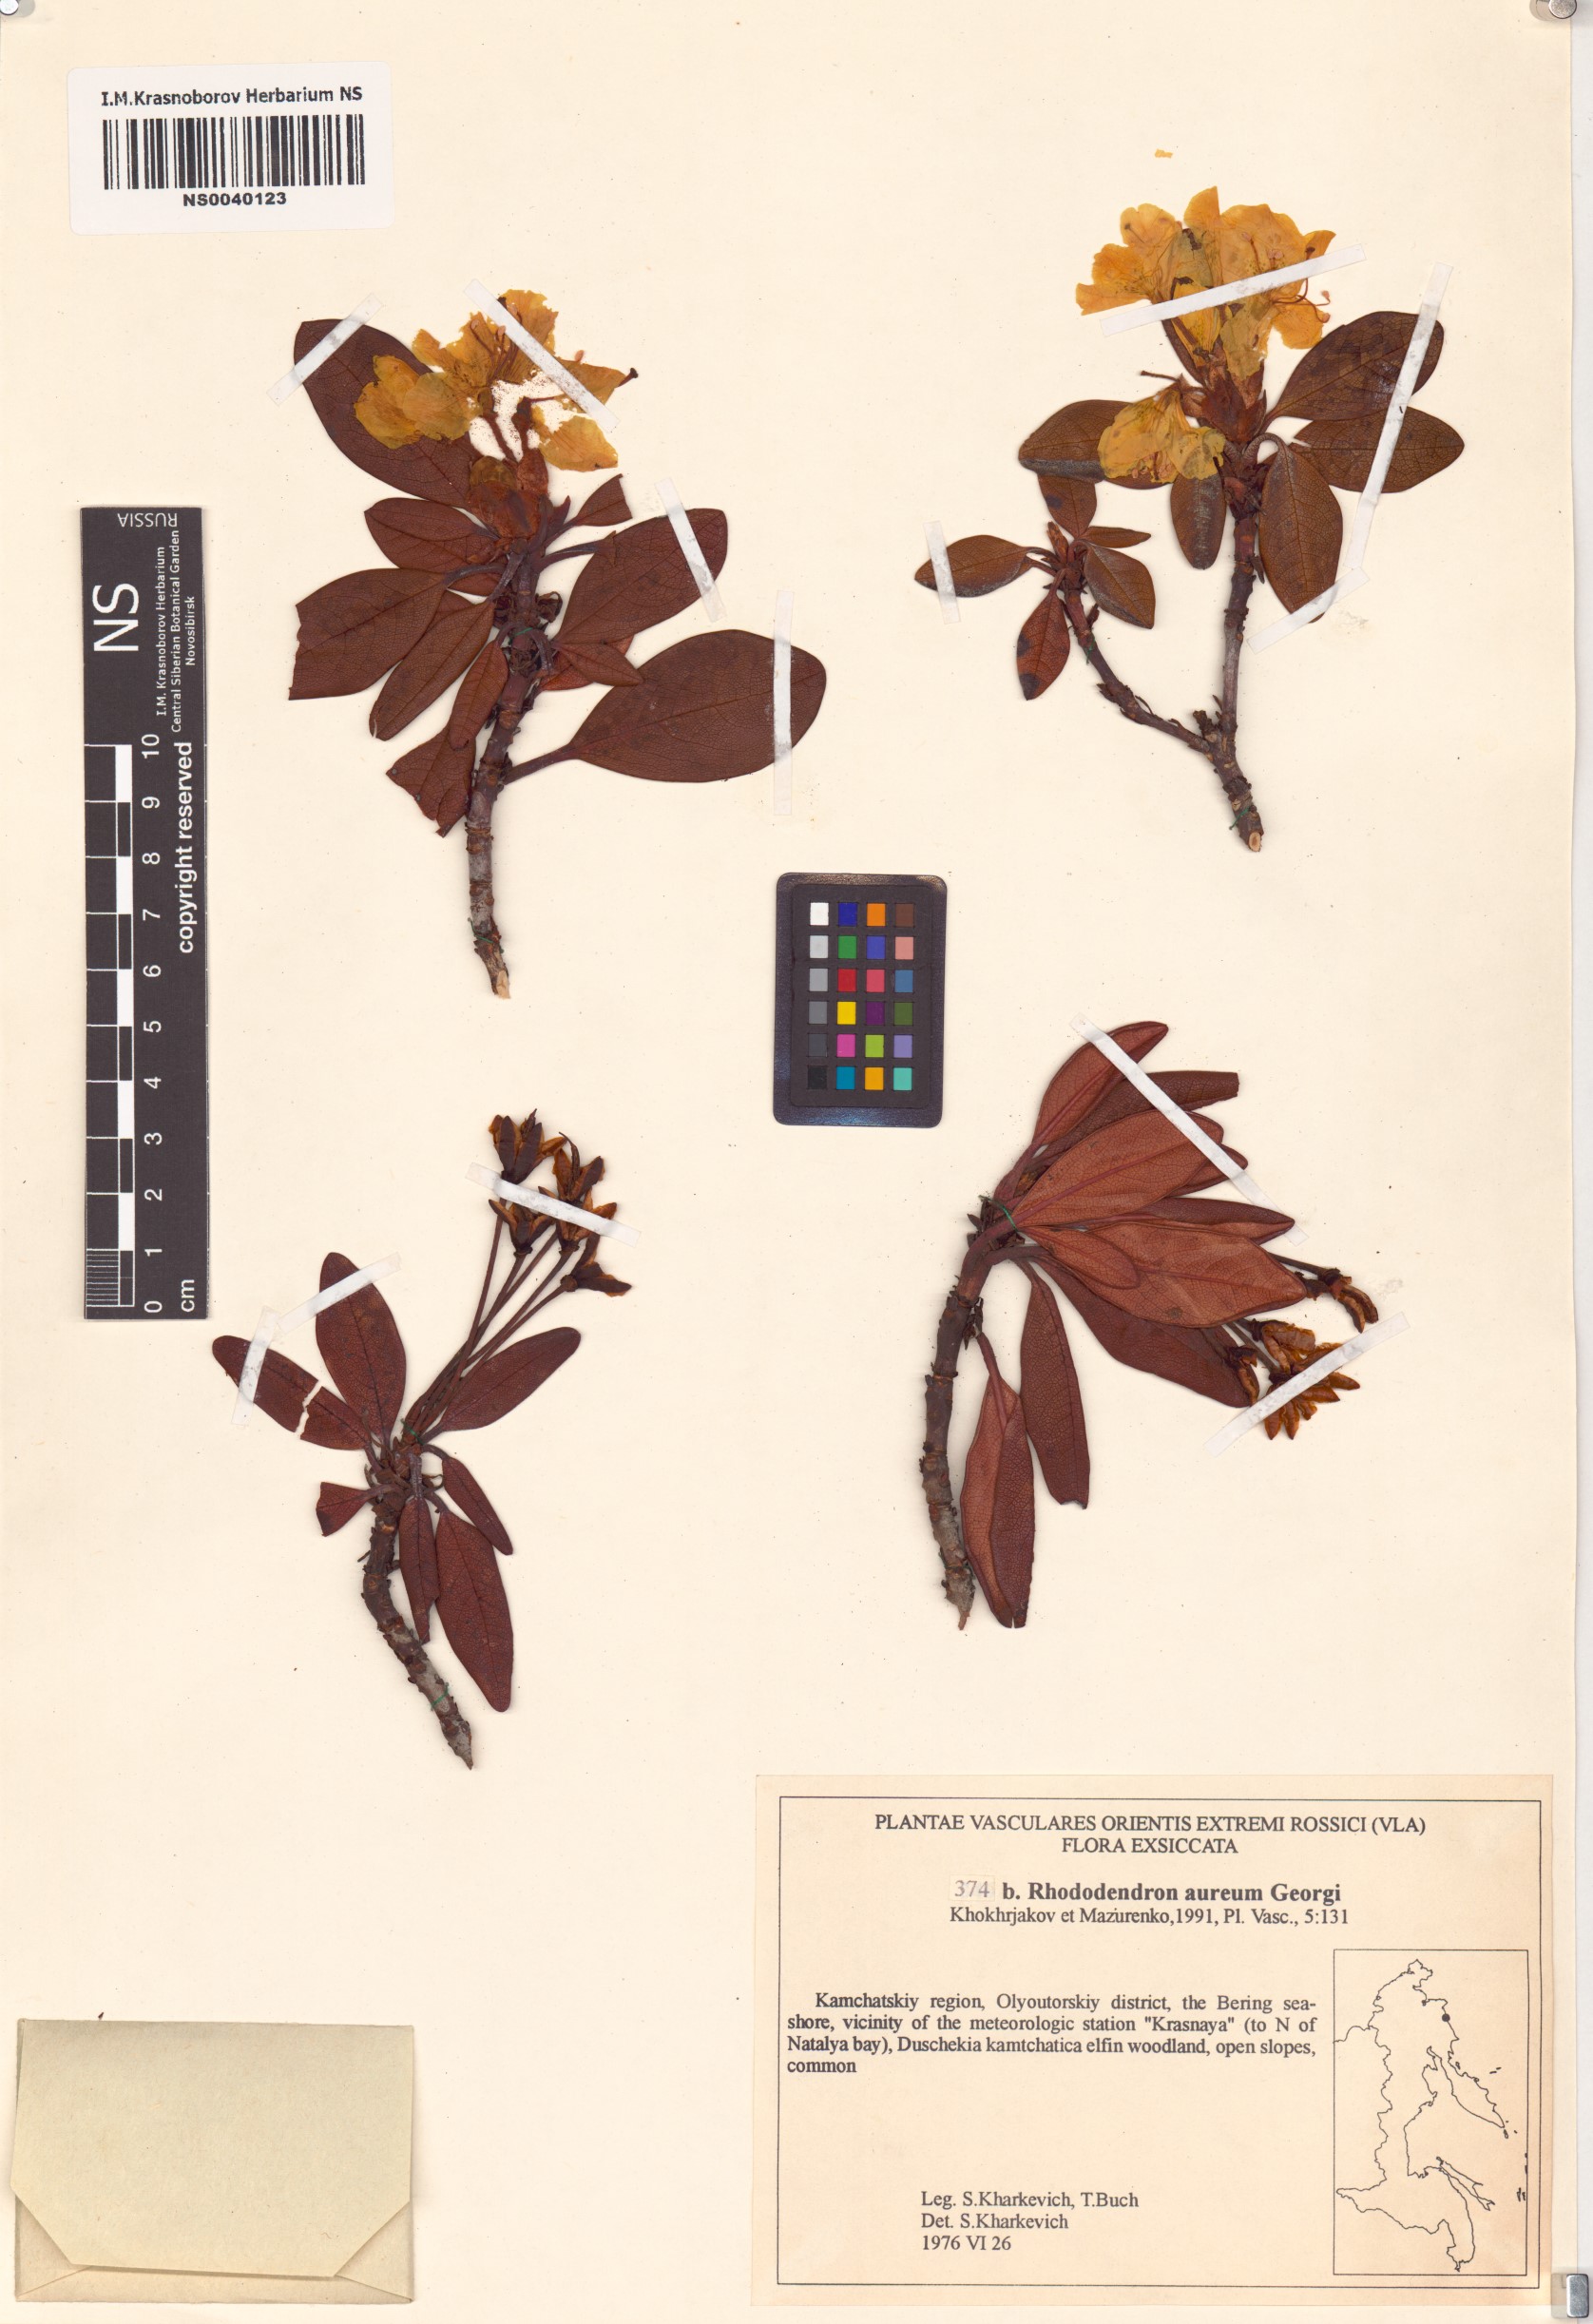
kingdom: Plantae
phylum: Tracheophyta
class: Magnoliopsida
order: Ericales
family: Ericaceae
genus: Rhododendron
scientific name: Rhododendron aureum
